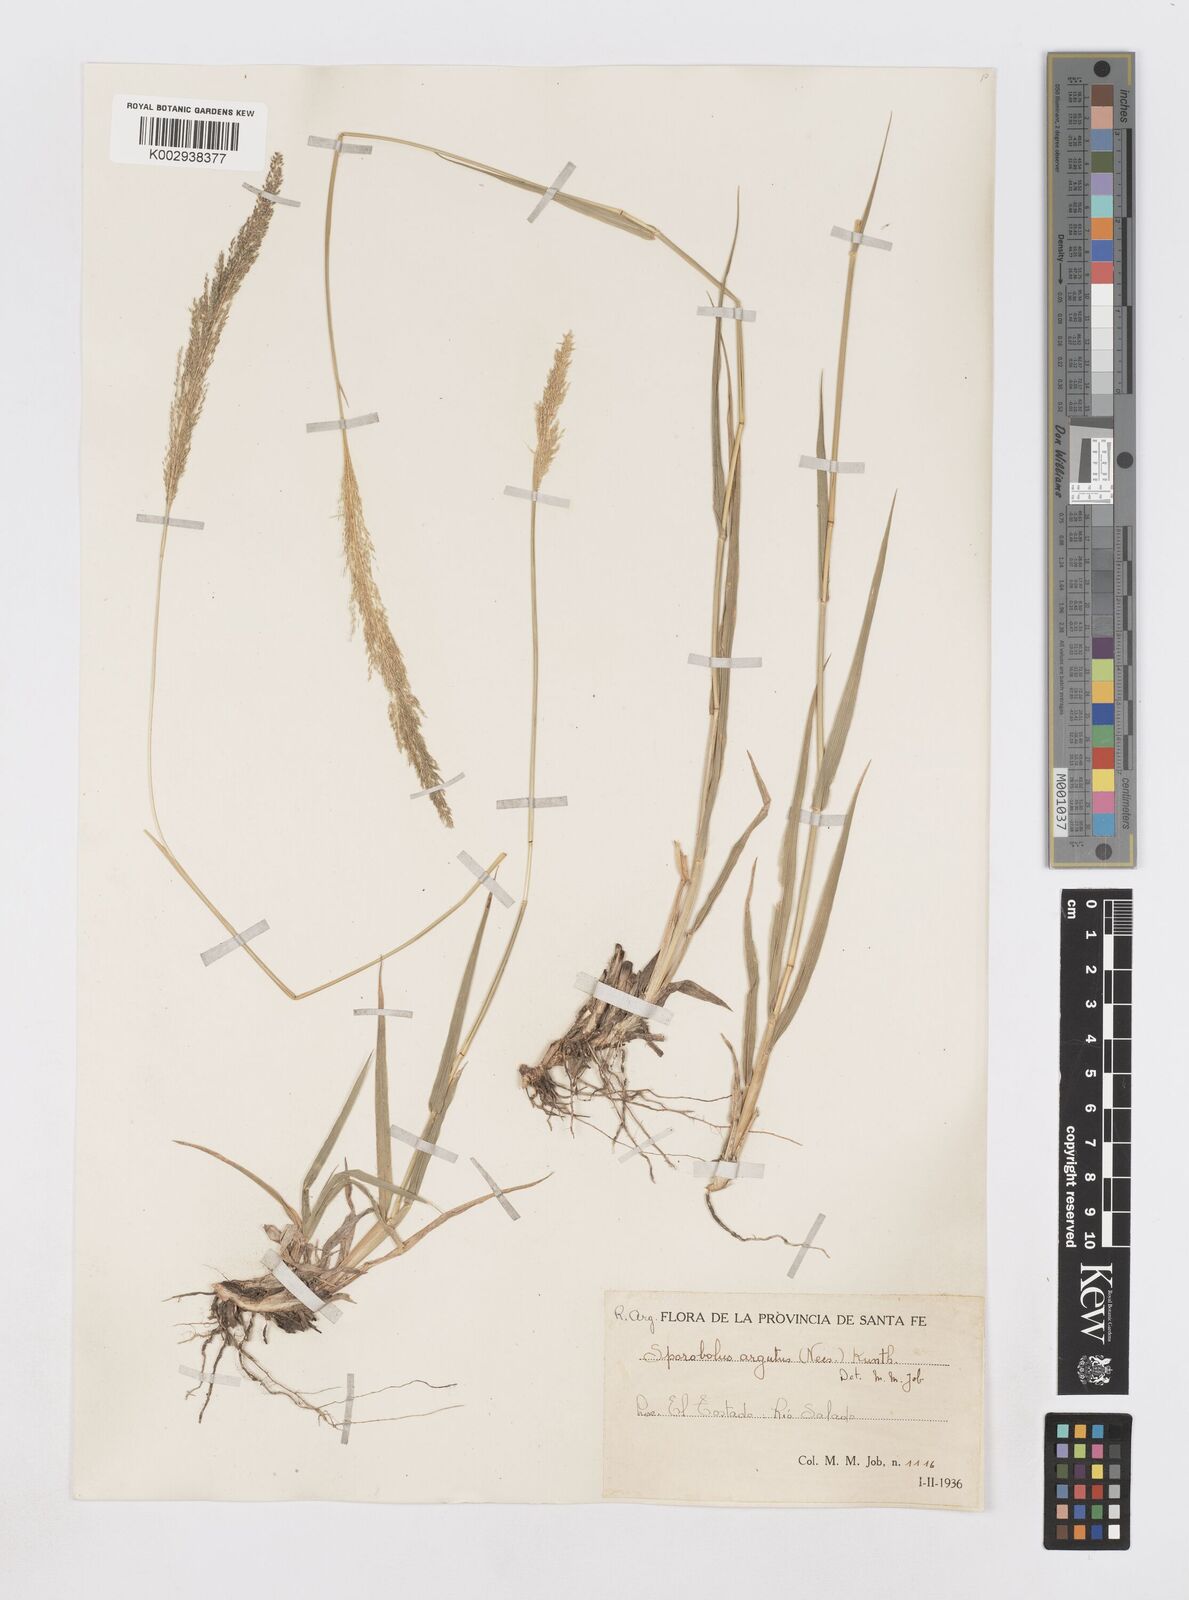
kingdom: Plantae
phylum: Tracheophyta
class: Liliopsida
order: Poales
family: Poaceae
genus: Sporobolus
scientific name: Sporobolus pyramidatus
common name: Whorled dropseed
